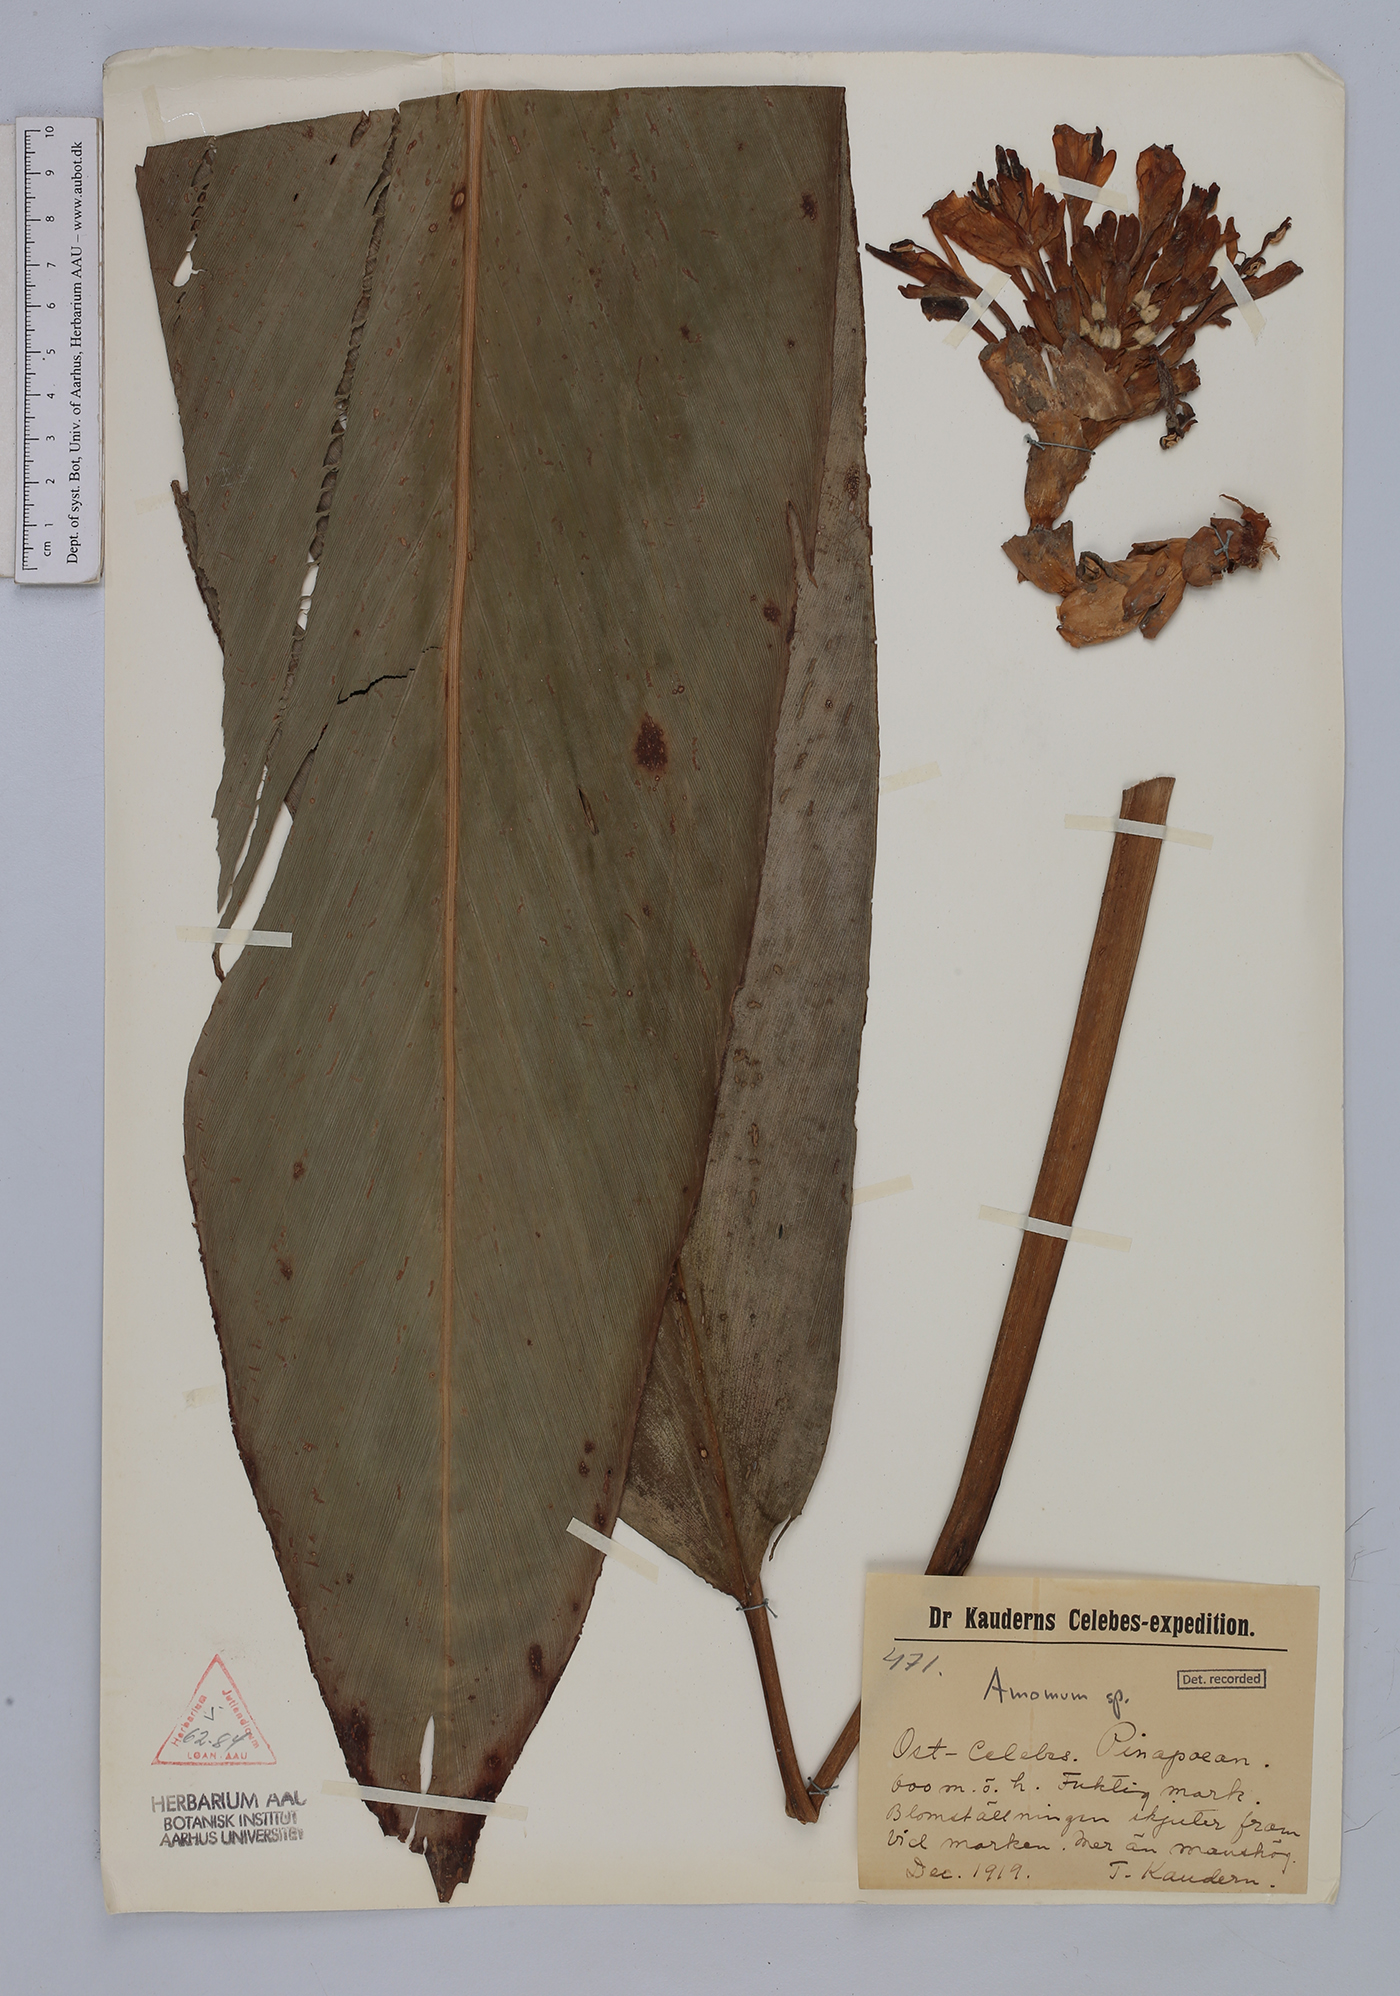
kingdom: Plantae
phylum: Tracheophyta
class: Liliopsida
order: Zingiberales
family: Zingiberaceae
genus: Amomum
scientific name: Amomum
